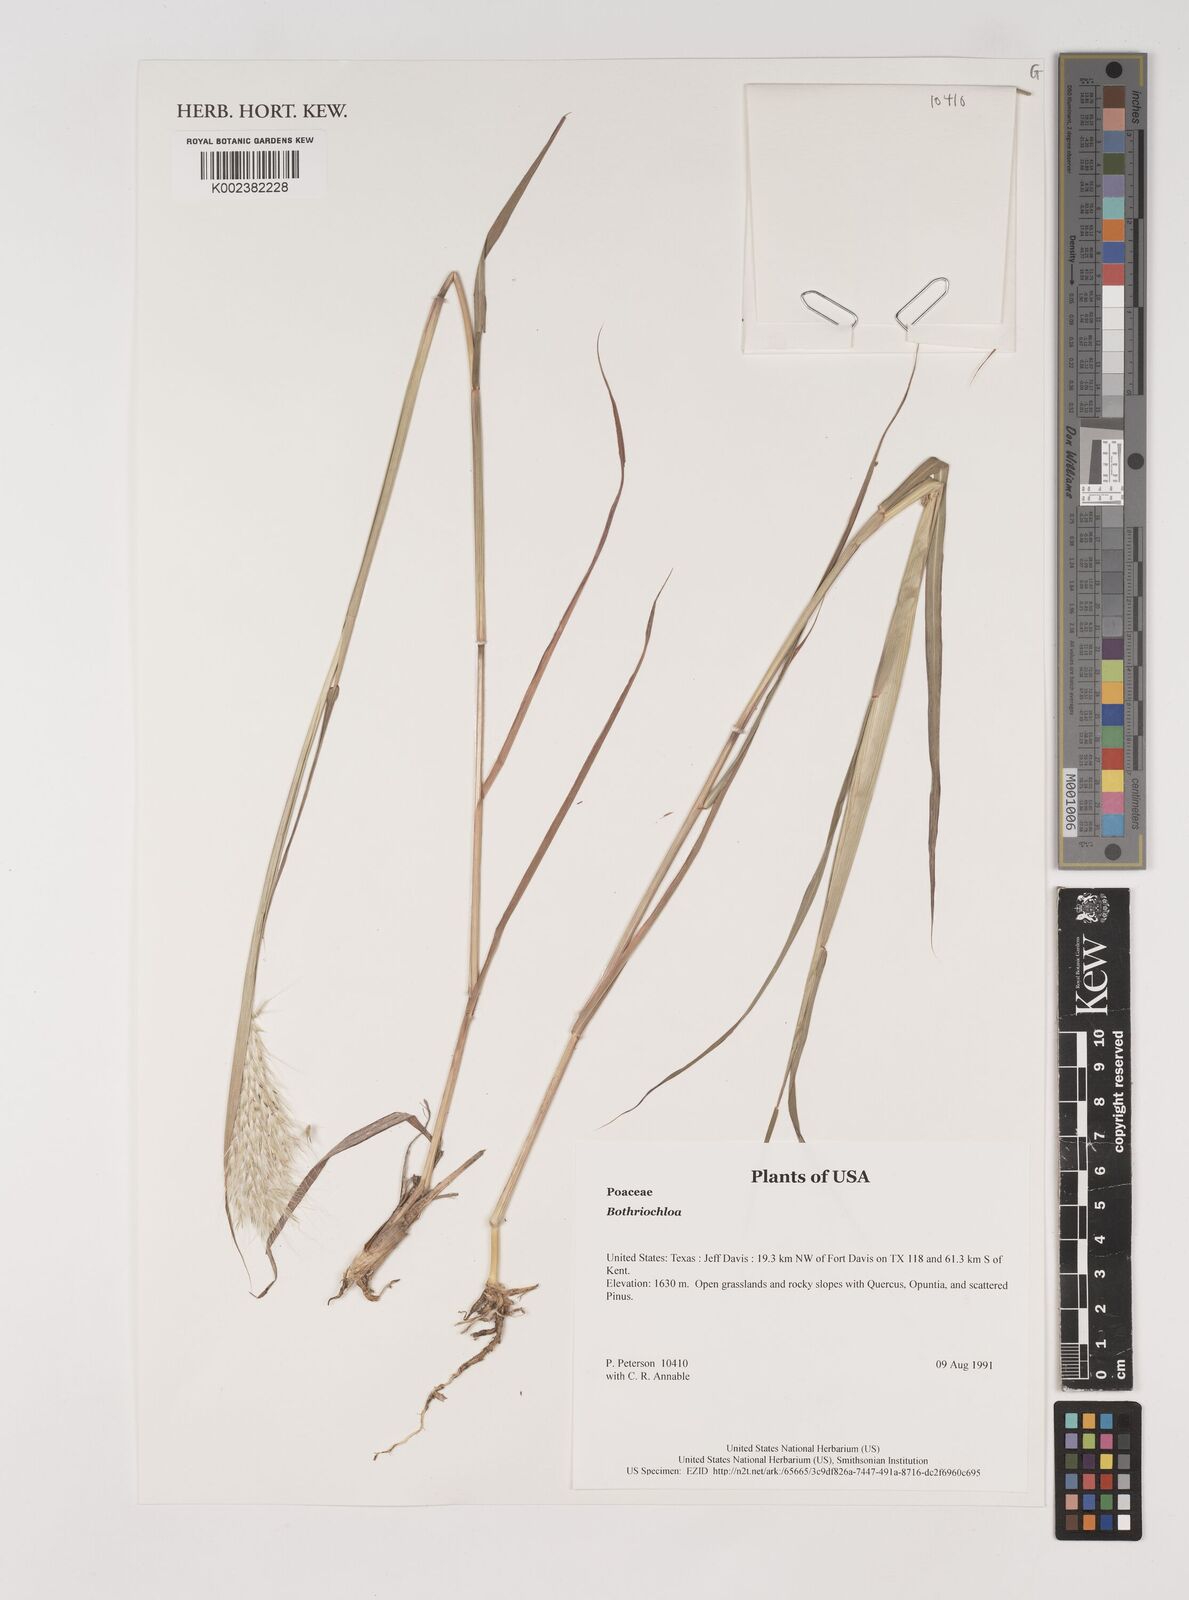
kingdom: Plantae
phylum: Tracheophyta
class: Liliopsida
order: Poales
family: Poaceae
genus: Bothriochloa
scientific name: Bothriochloa
